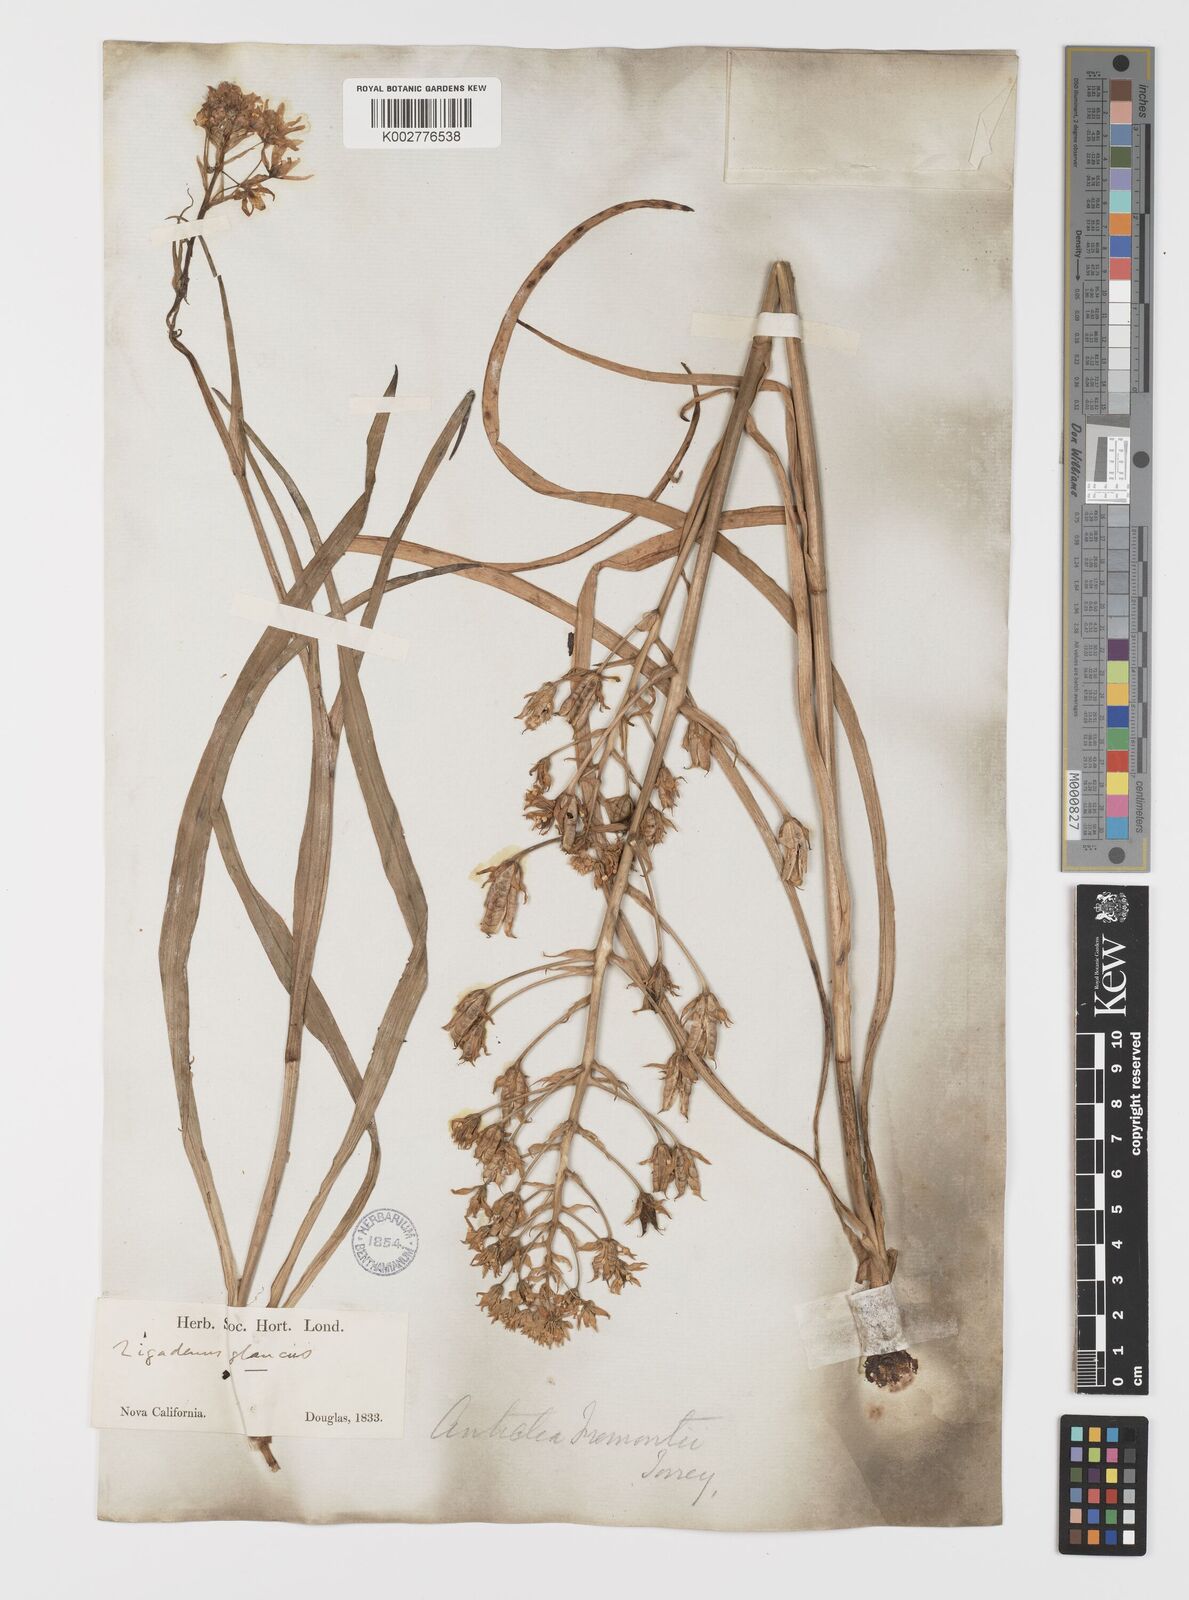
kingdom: Plantae
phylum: Tracheophyta
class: Liliopsida
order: Liliales
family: Melanthiaceae
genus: Toxicoscordion
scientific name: Toxicoscordion fremontii
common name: Fremont's death camas
